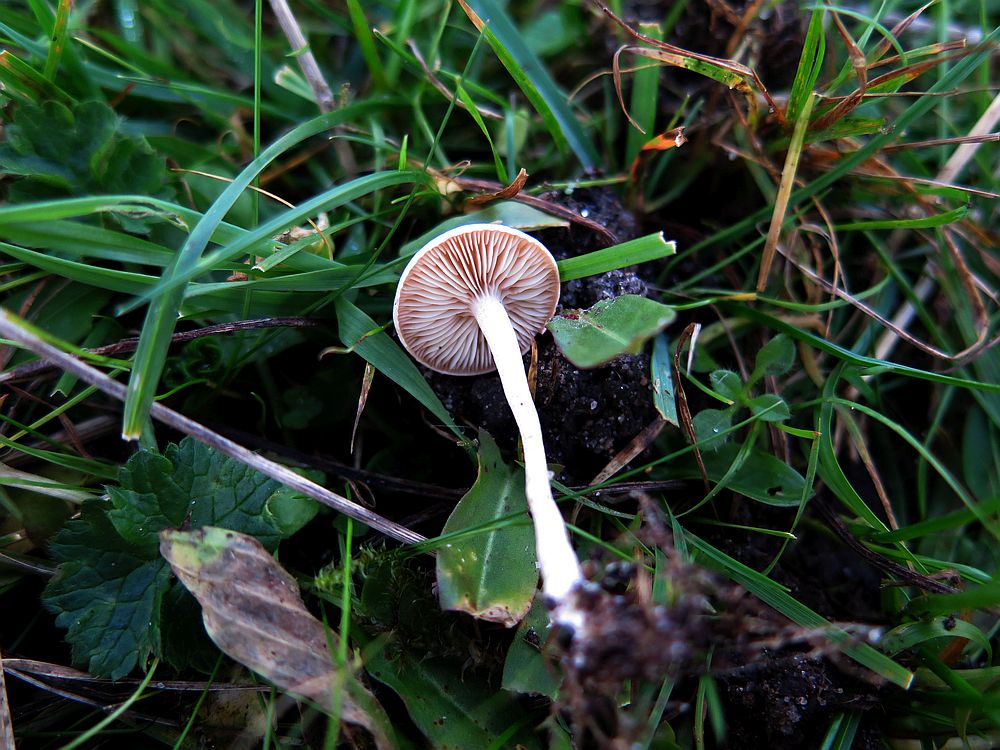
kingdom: Fungi
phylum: Basidiomycota
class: Agaricomycetes
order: Agaricales
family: Tricholomataceae
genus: Clitocybe
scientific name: Clitocybe rivulosa
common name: eng-tragthat
